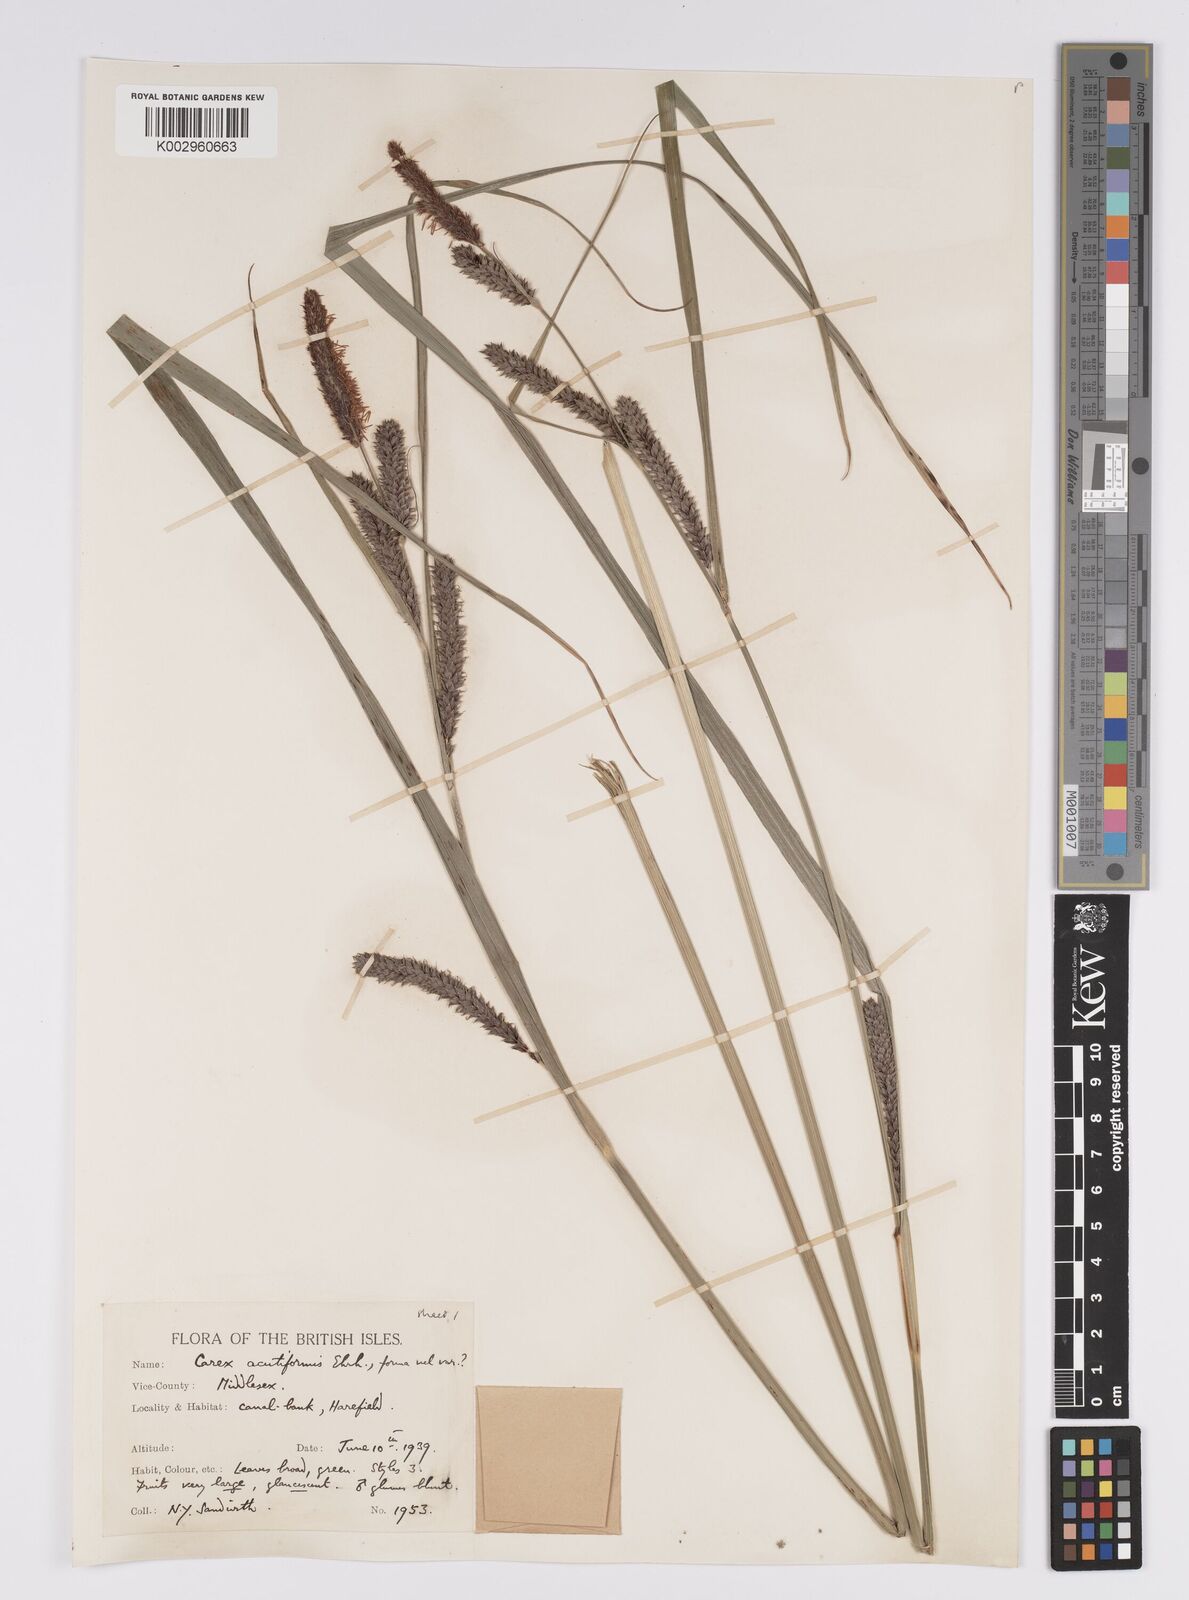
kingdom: Plantae
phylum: Tracheophyta
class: Liliopsida
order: Poales
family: Cyperaceae
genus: Carex
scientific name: Carex acutiformis
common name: Lesser pond-sedge
